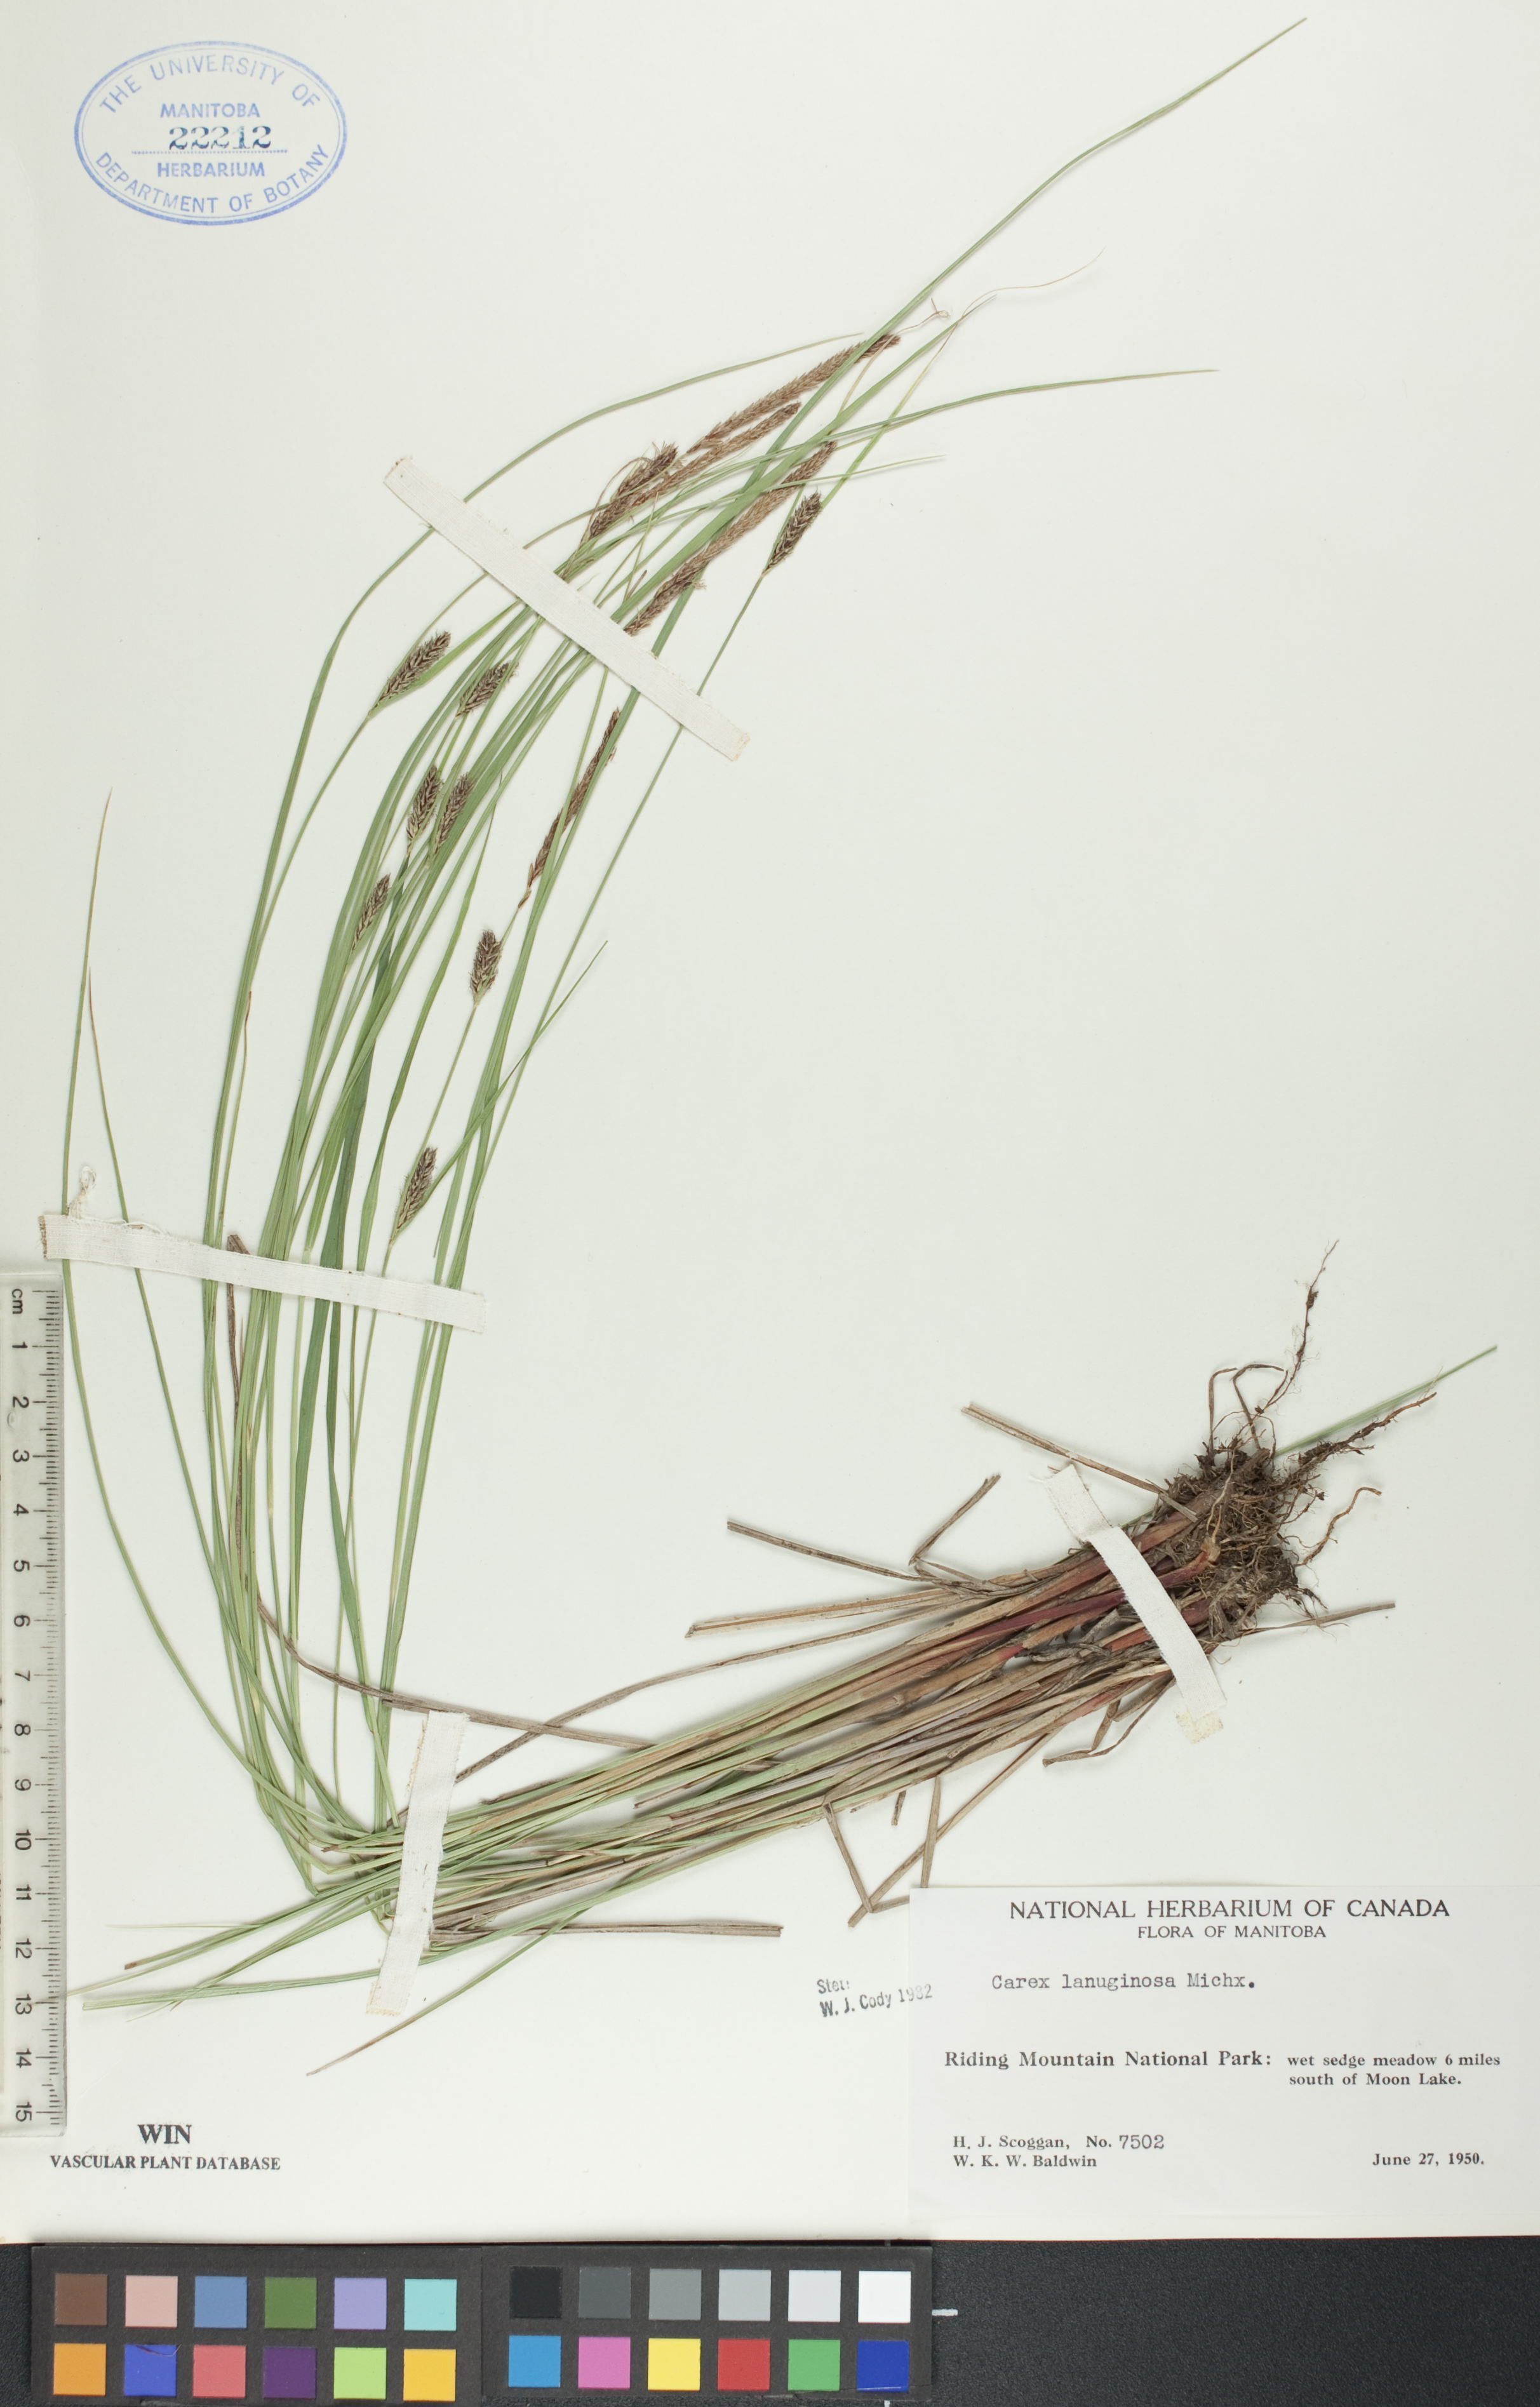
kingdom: Plantae
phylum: Tracheophyta
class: Liliopsida
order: Poales
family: Cyperaceae
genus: Carex
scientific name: Carex lasiocarpa
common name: Slender sedge
